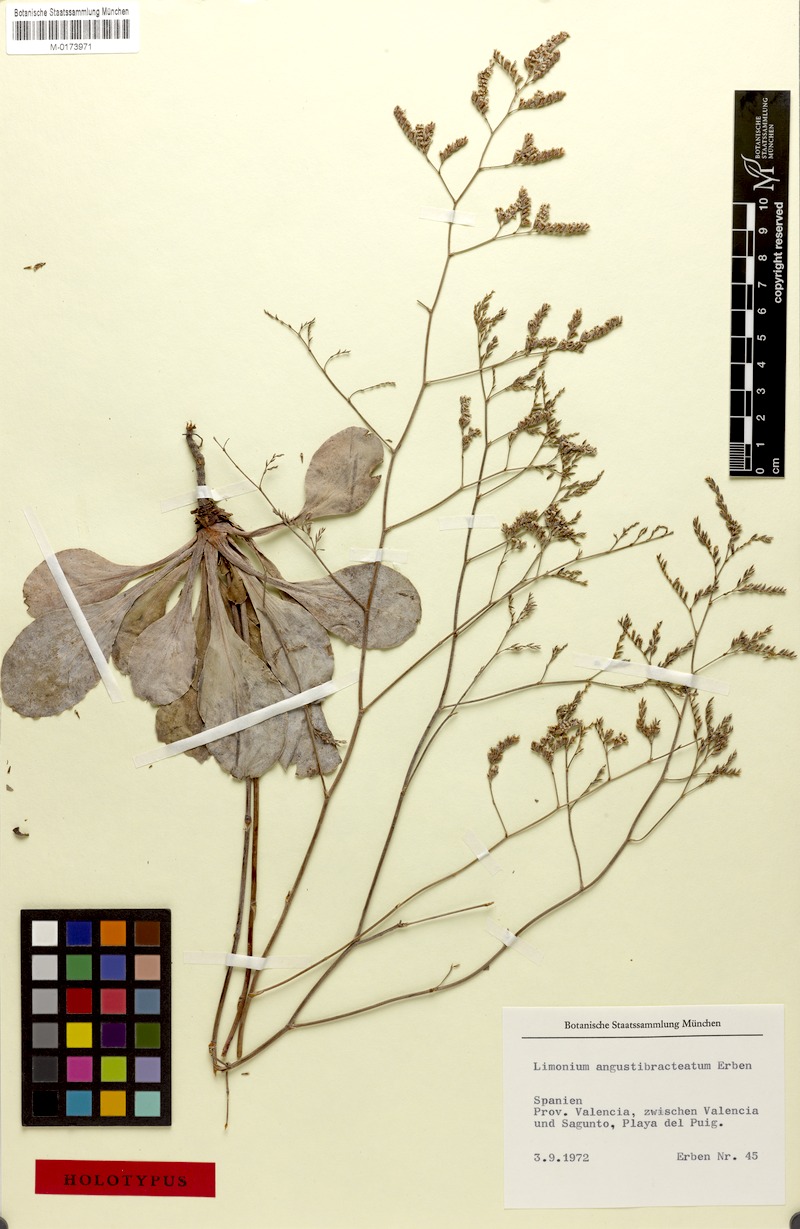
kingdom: Plantae
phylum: Tracheophyta
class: Magnoliopsida
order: Caryophyllales
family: Plumbaginaceae
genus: Limonium
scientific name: Limonium angustibracteatum
